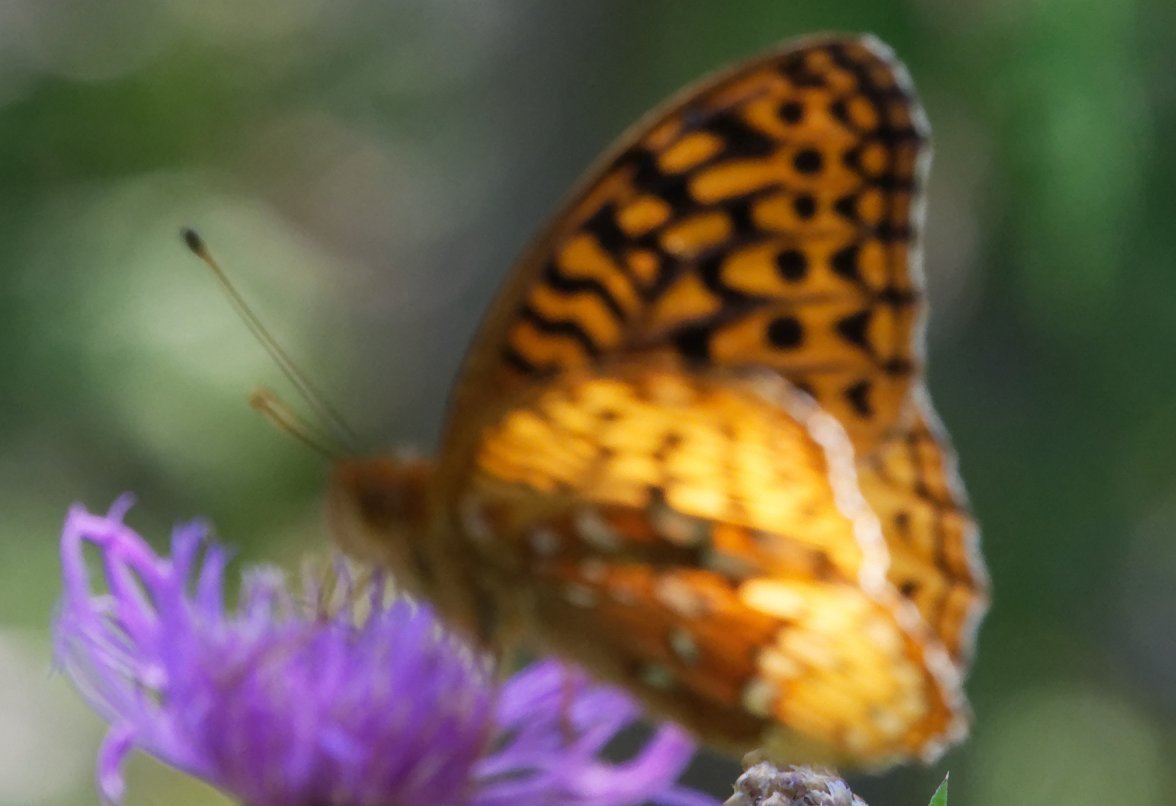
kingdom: Animalia
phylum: Arthropoda
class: Insecta
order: Lepidoptera
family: Nymphalidae
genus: Speyeria
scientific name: Speyeria cybele
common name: Great Spangled Fritillary
